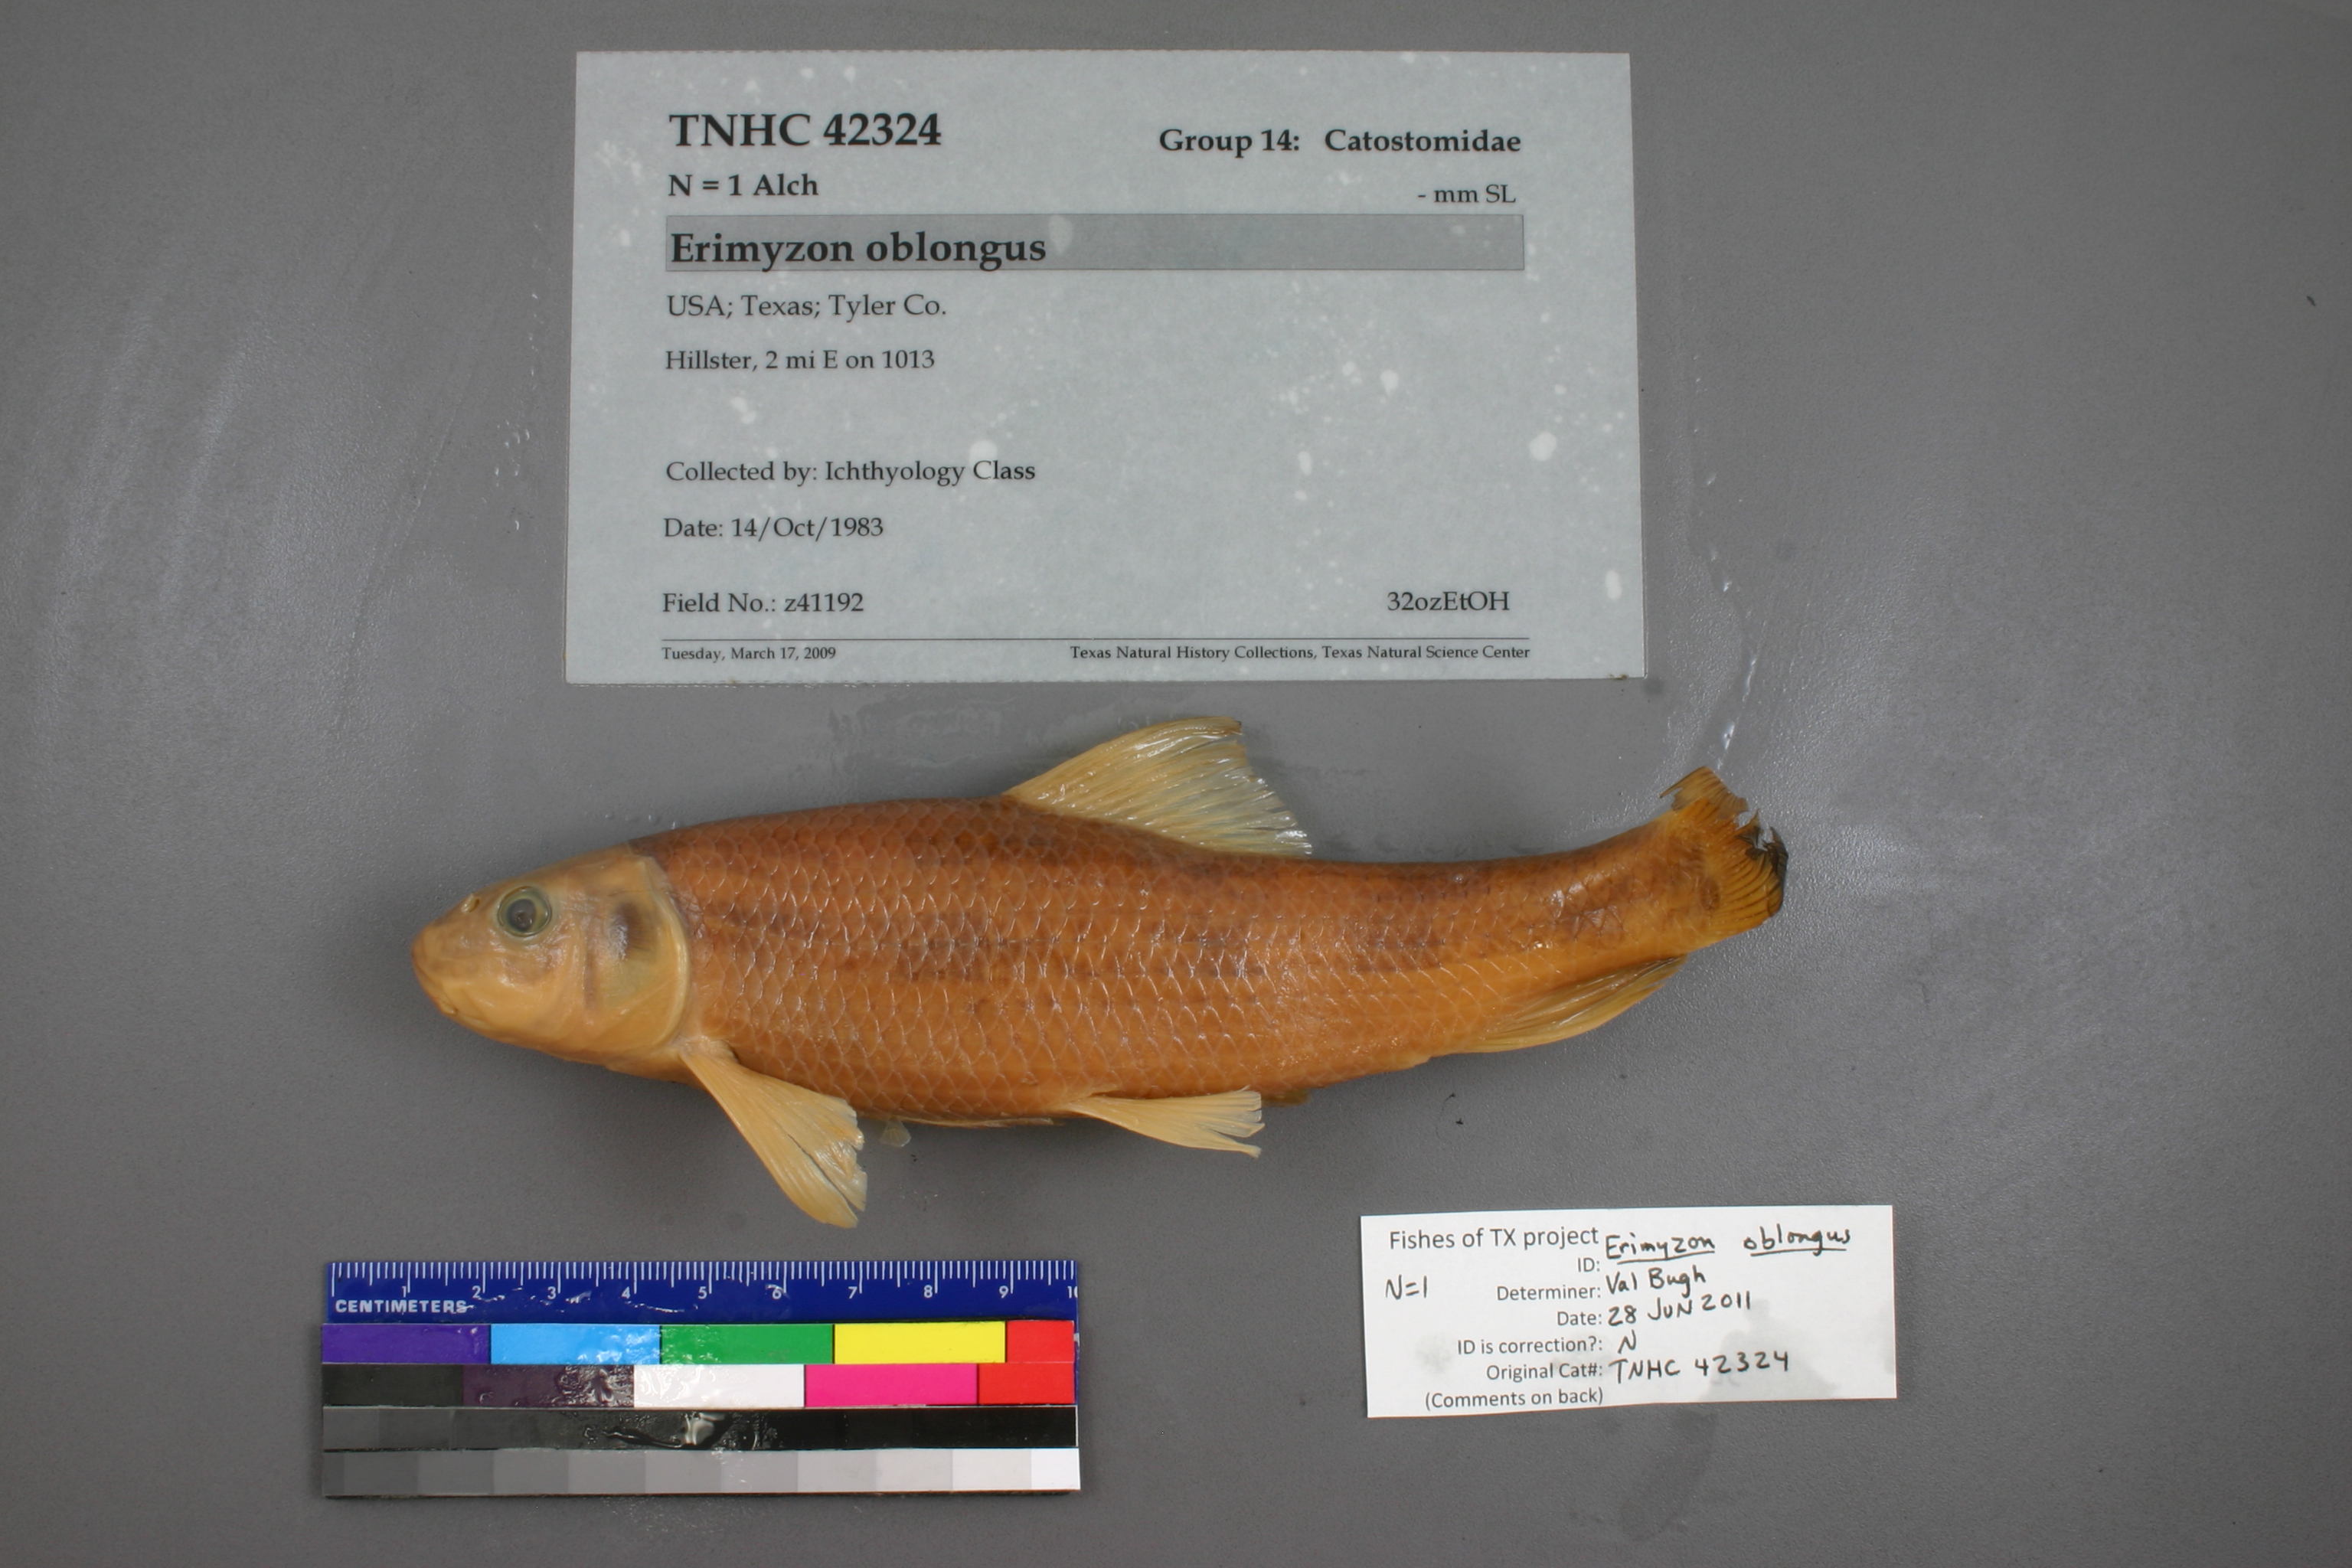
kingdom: Animalia
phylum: Chordata
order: Cypriniformes
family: Catostomidae
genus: Moxostoma
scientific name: Moxostoma poecilurum
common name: Blacktail redhorse
